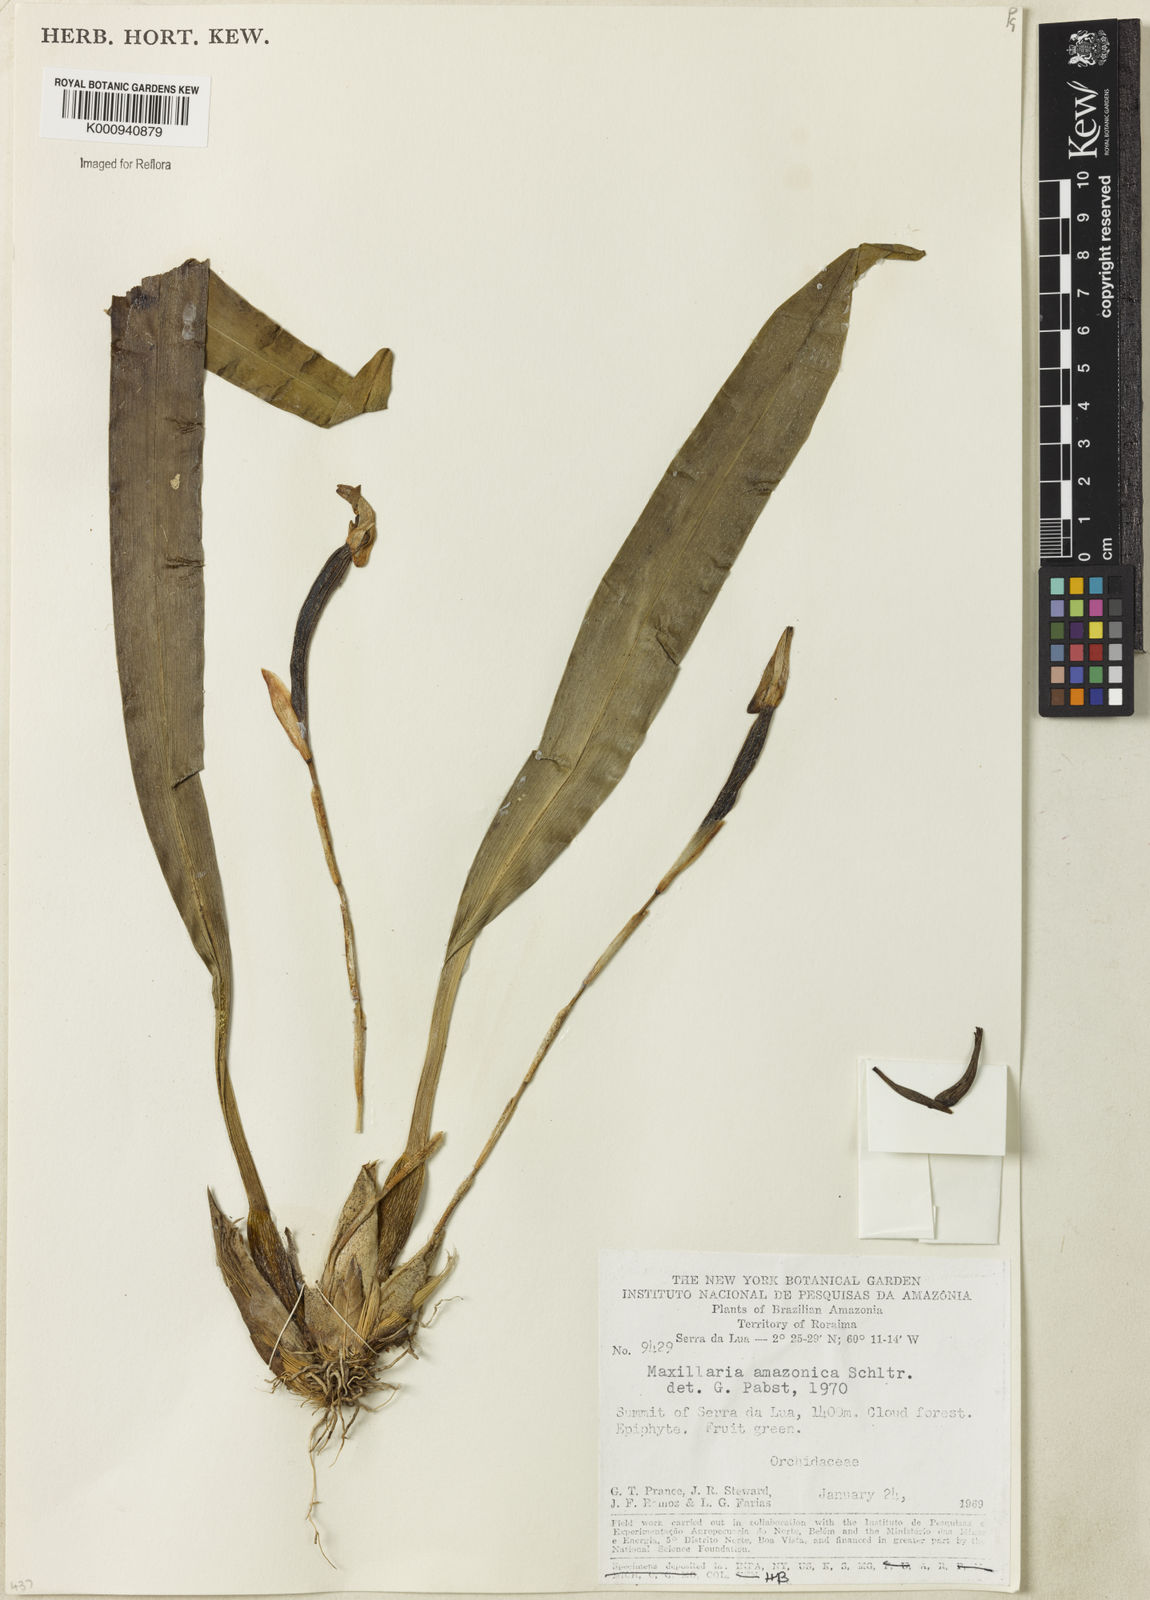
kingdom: Plantae
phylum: Tracheophyta
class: Liliopsida
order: Asparagales
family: Orchidaceae
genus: Maxillaria
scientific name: Maxillaria kegelii
